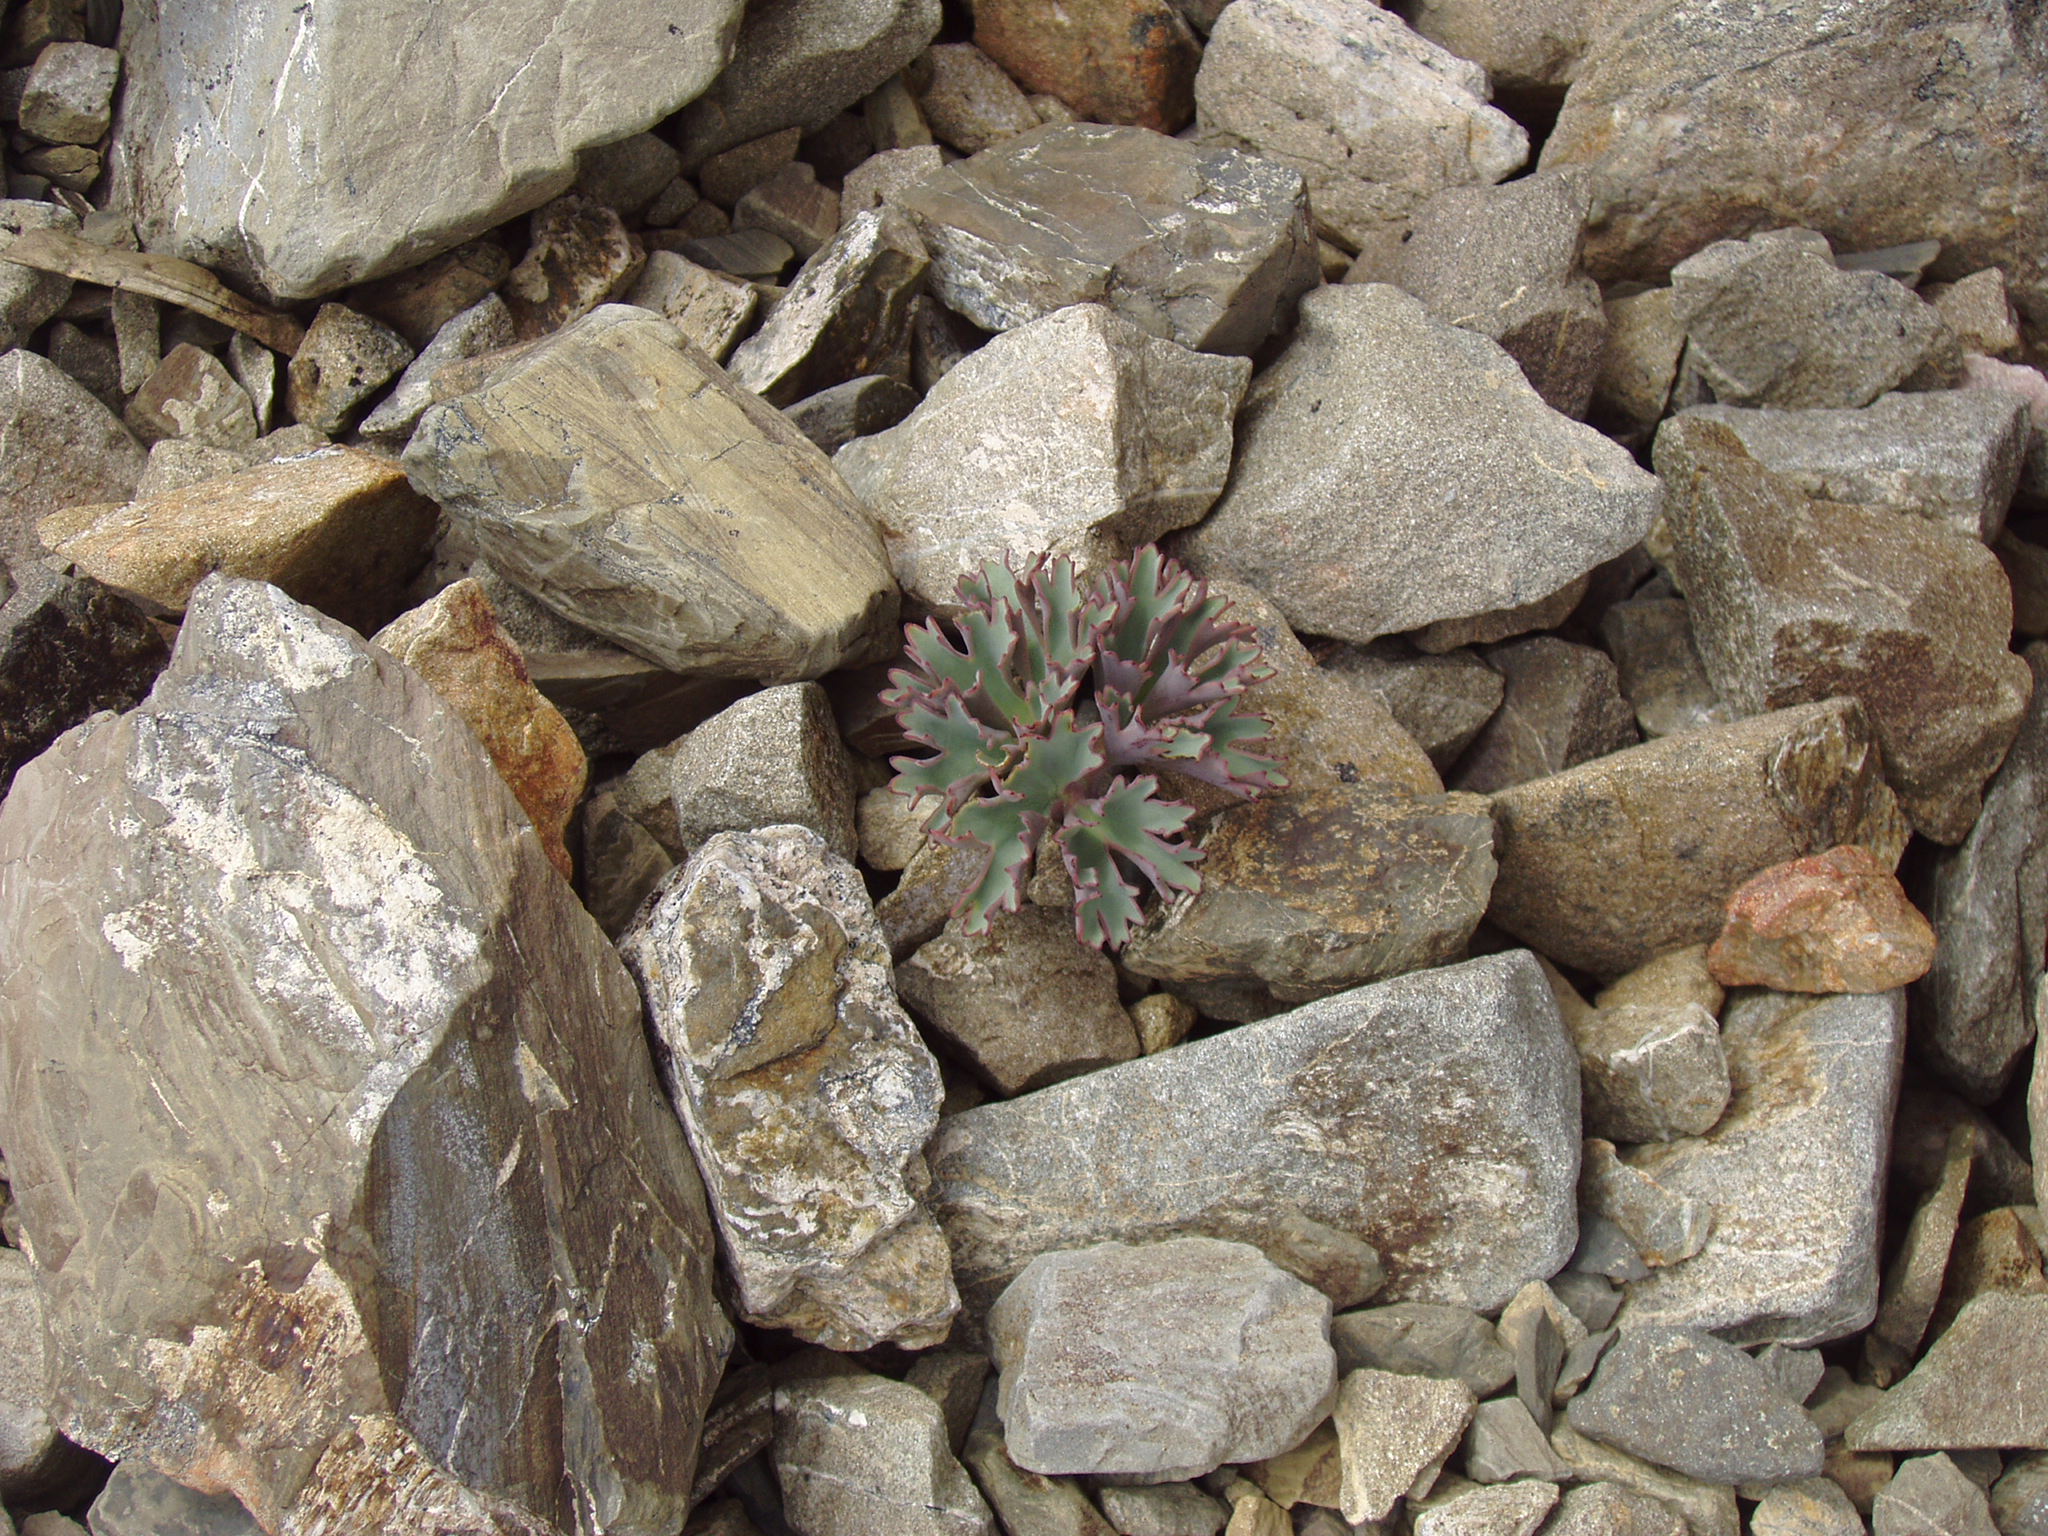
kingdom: Plantae
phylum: Tracheophyta
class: Magnoliopsida
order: Ranunculales
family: Ranunculaceae
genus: Ranunculus
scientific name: Ranunculus haastii
